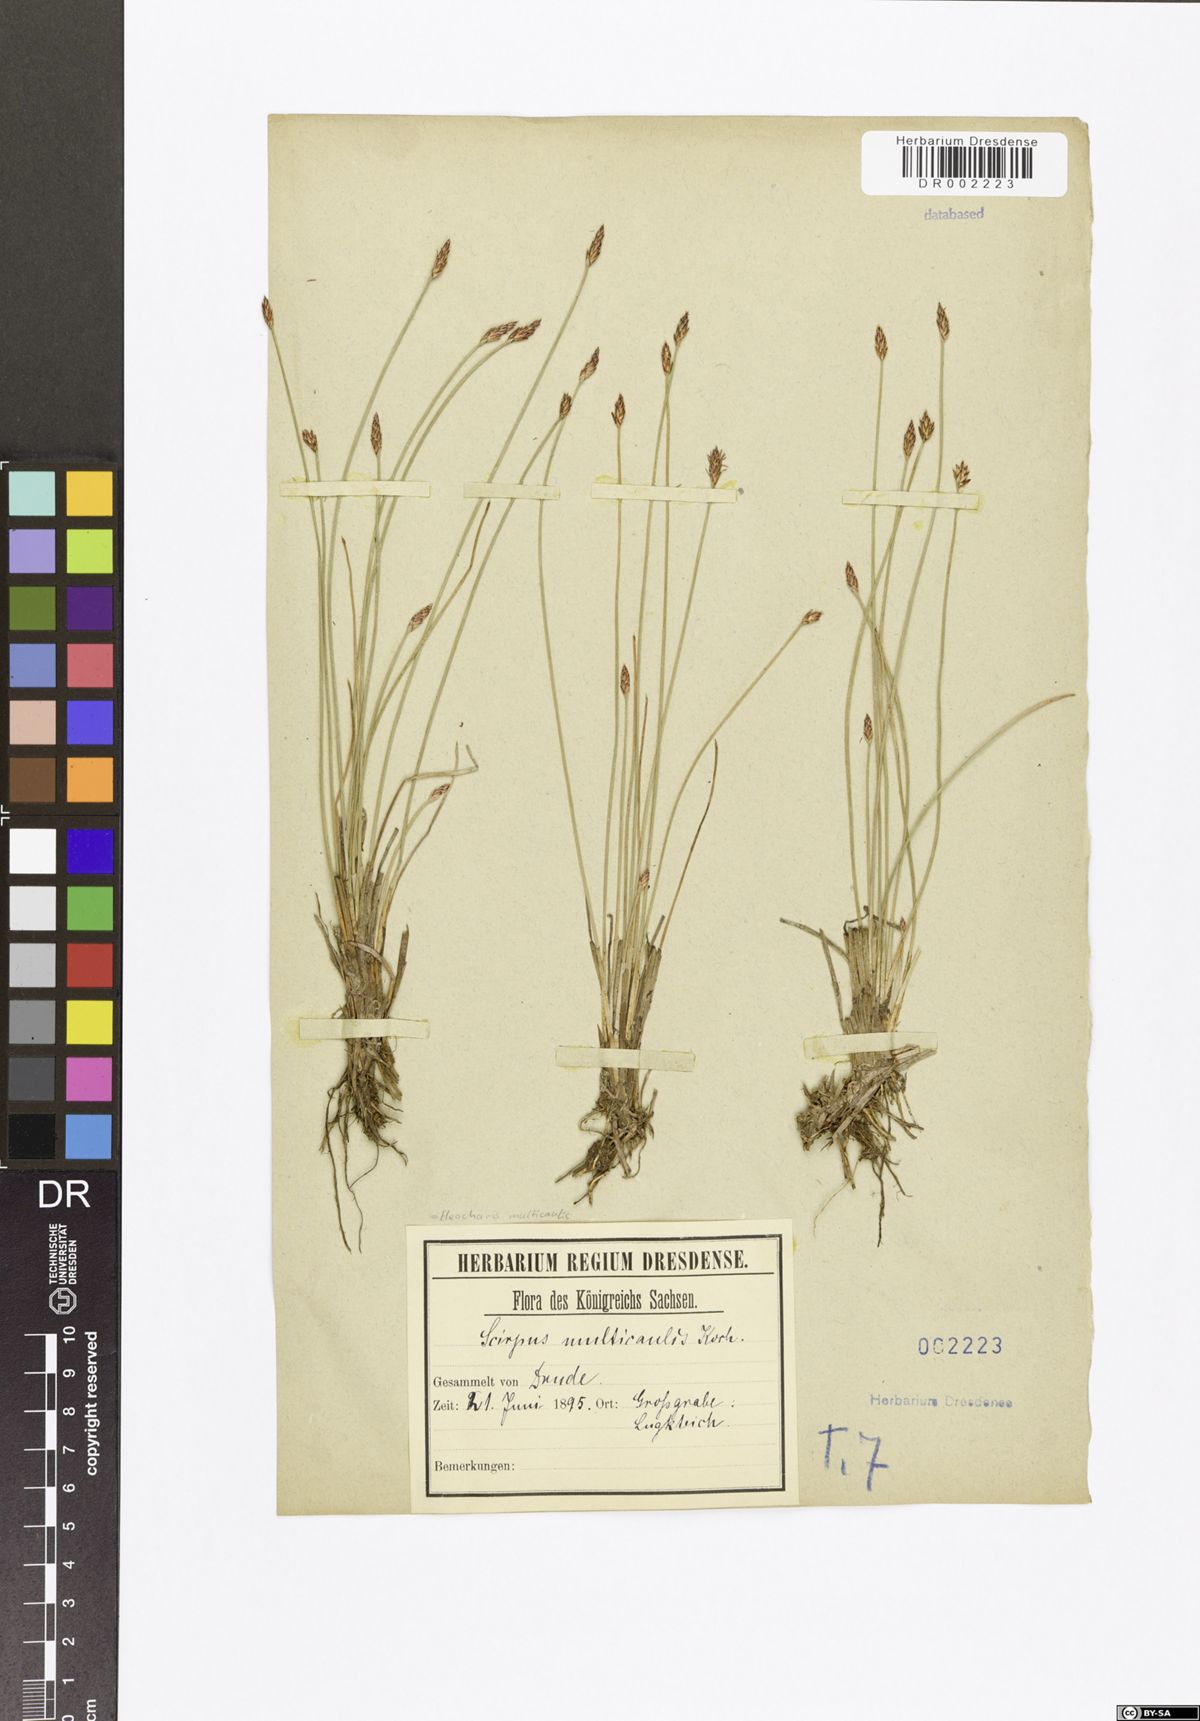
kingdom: Plantae
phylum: Tracheophyta
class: Liliopsida
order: Poales
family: Cyperaceae
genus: Eleocharis
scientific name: Eleocharis multicaulis
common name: Many-stalked spike-rush
